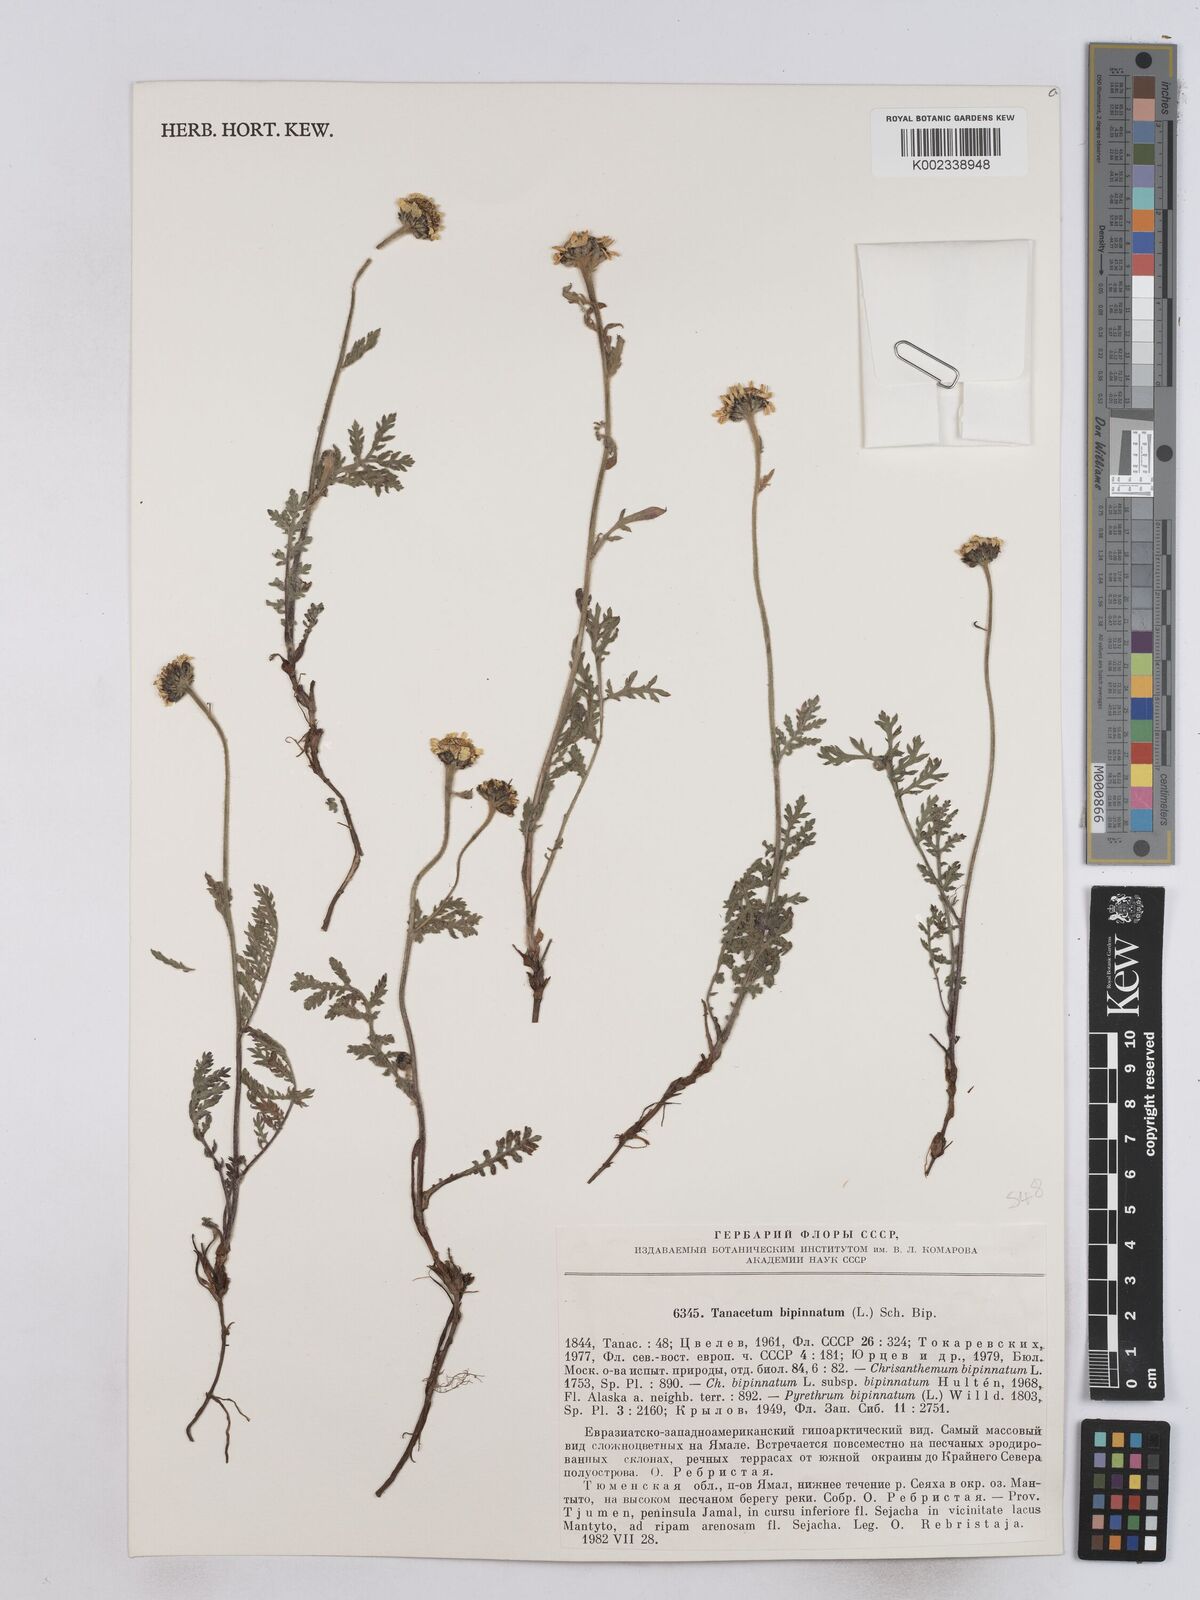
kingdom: Plantae
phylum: Tracheophyta
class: Magnoliopsida
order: Asterales
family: Asteraceae
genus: Tanacetum
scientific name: Tanacetum bipinnatum
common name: Dwarf tansy
